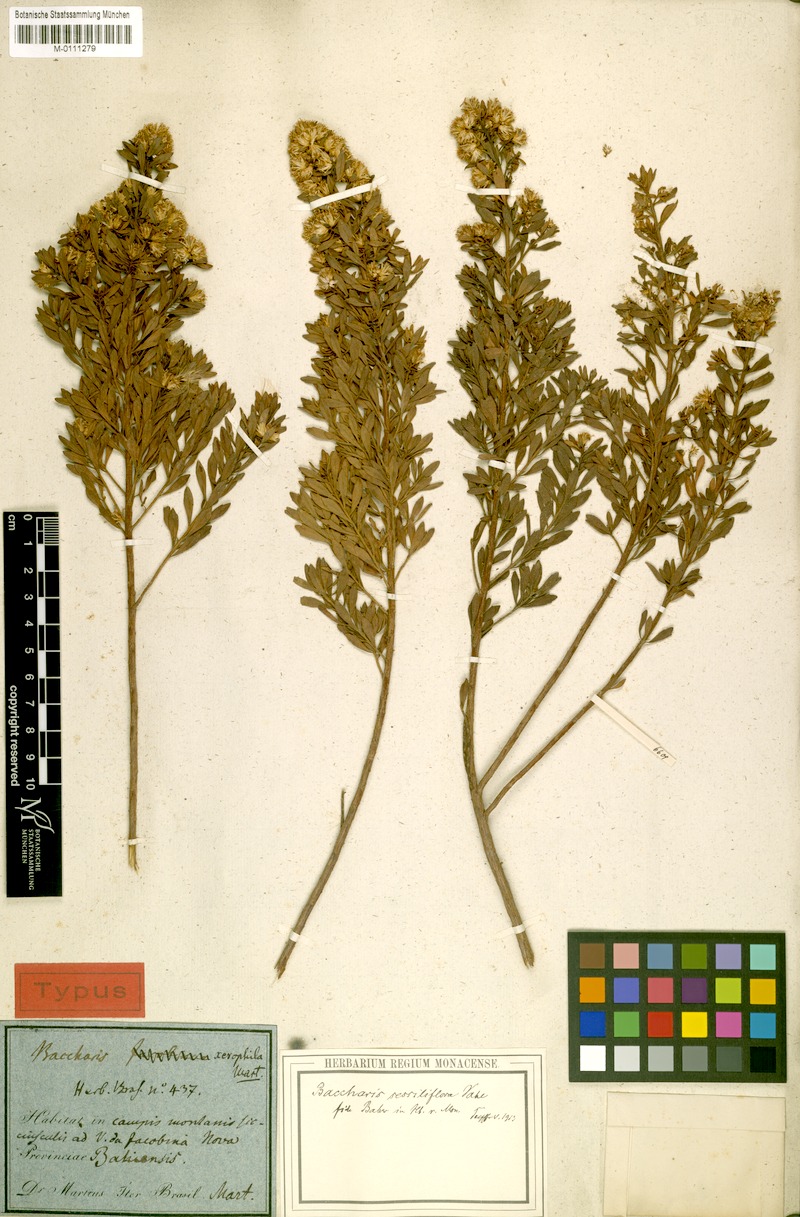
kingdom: Plantae
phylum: Tracheophyta
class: Magnoliopsida
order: Asterales
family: Asteraceae
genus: Baccharis
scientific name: Baccharis brevifolia
